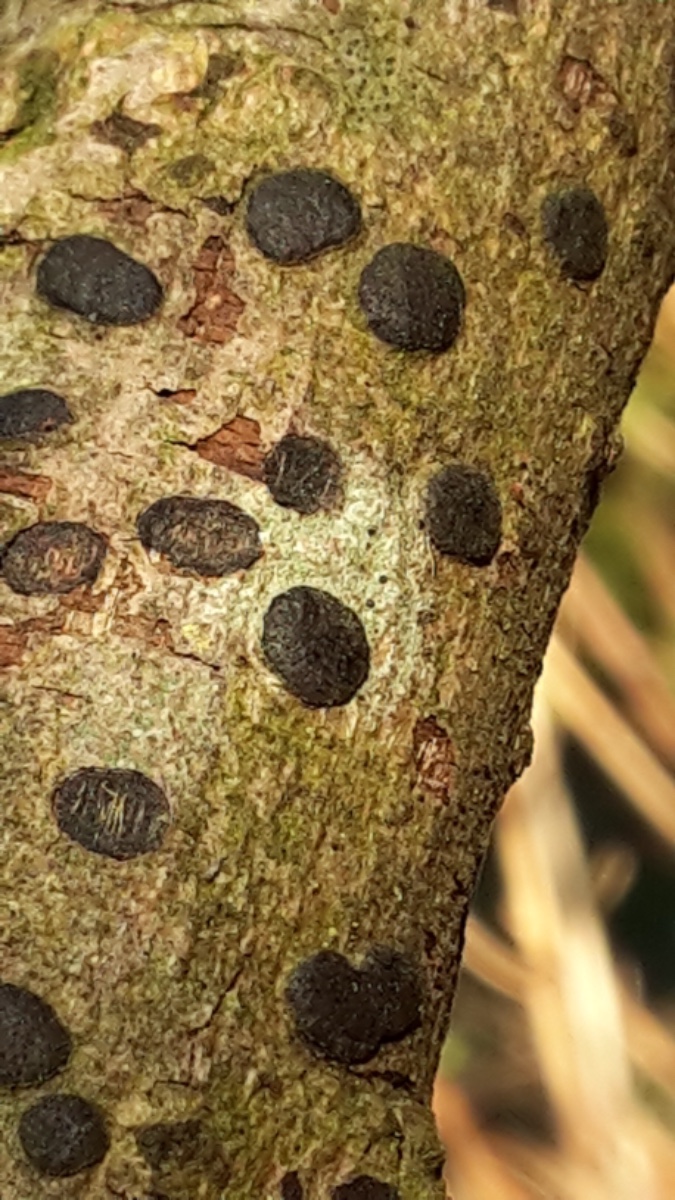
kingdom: Fungi
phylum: Ascomycota
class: Sordariomycetes
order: Xylariales
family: Diatrypaceae
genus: Diatrype
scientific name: Diatrype bullata
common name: pile-kulskorpe
